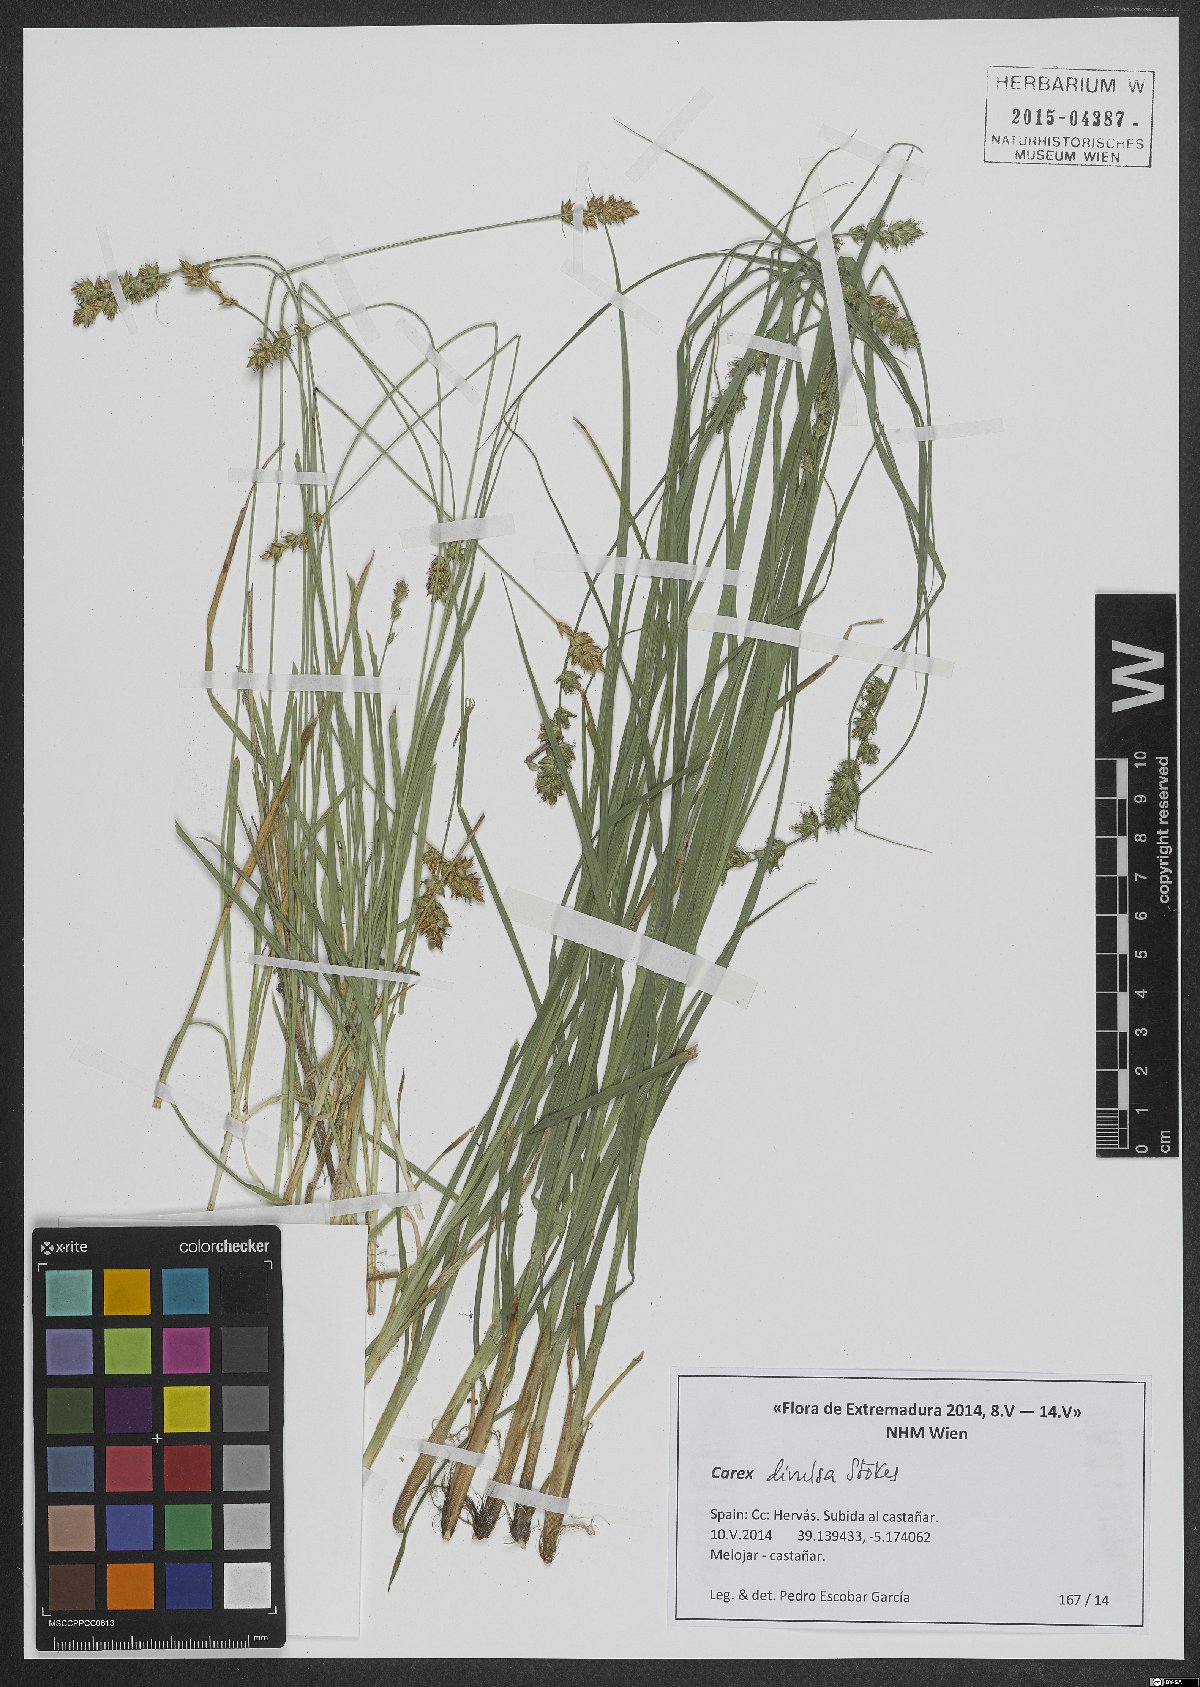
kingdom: Plantae
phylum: Tracheophyta
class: Liliopsida
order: Poales
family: Cyperaceae
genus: Carex
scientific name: Carex divulsa
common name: Grassland sedge
